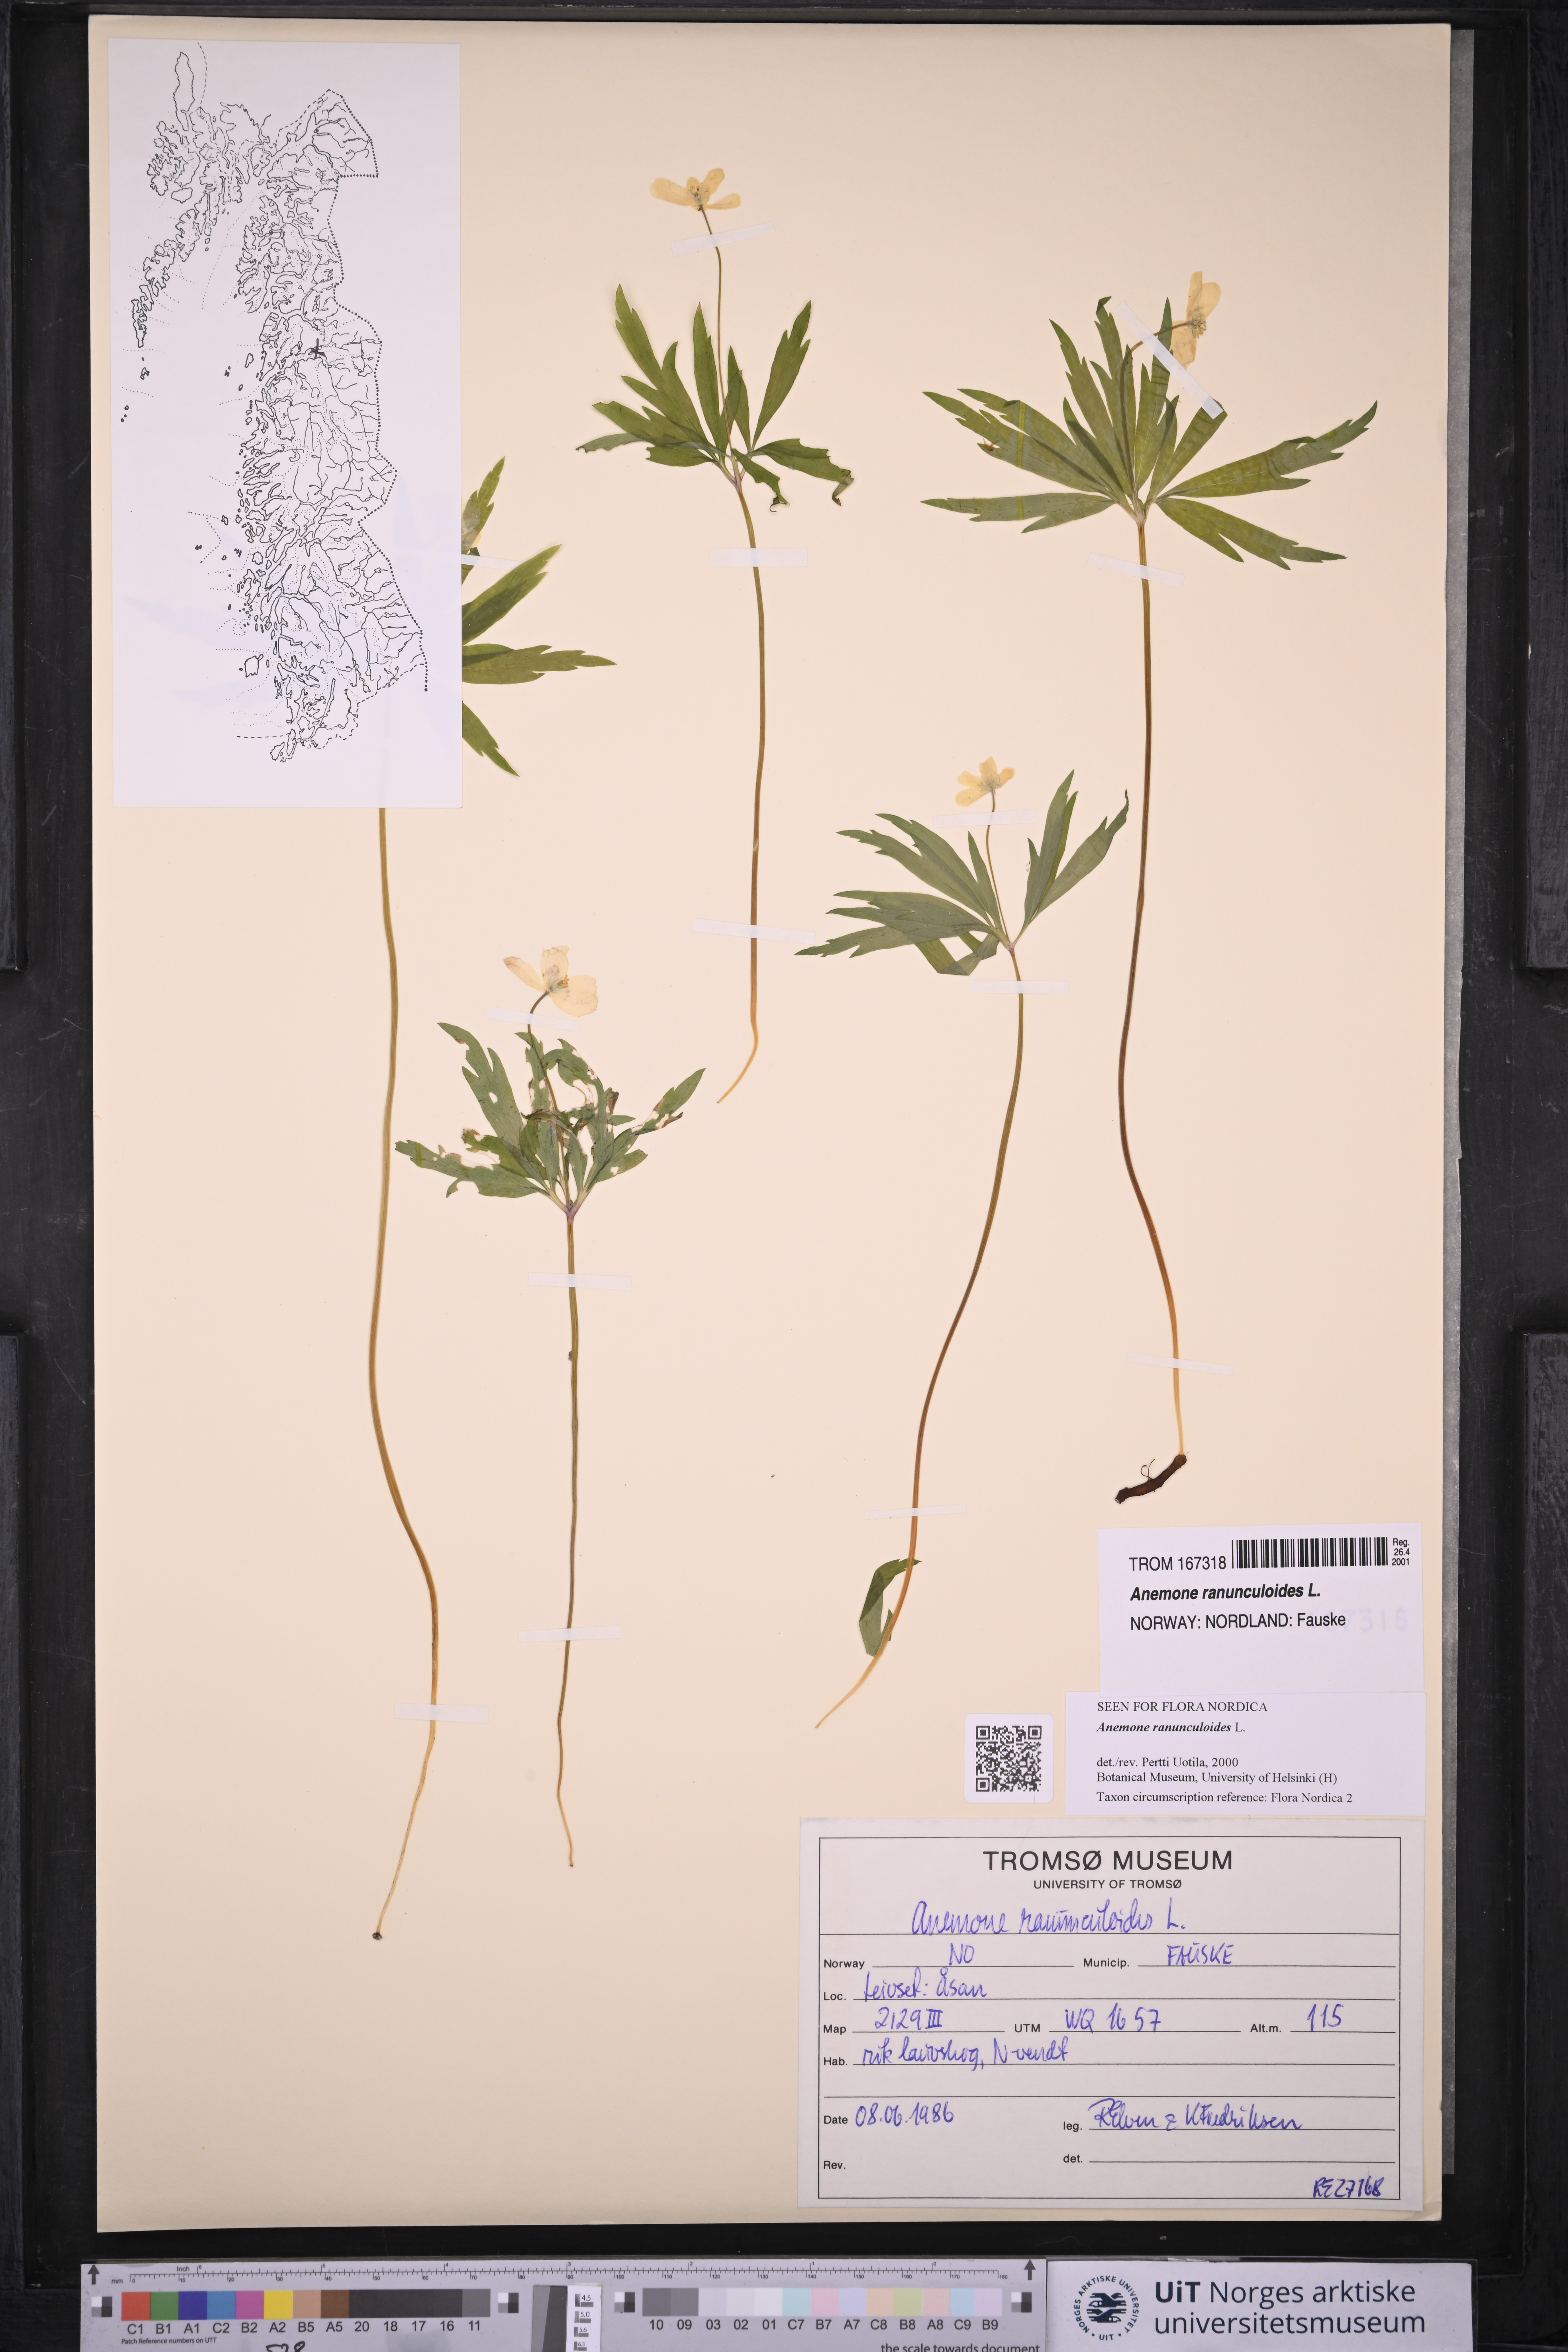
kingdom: Plantae
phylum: Tracheophyta
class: Magnoliopsida
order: Ranunculales
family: Ranunculaceae
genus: Anemone
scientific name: Anemone ranunculoides
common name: Yellow anemone
